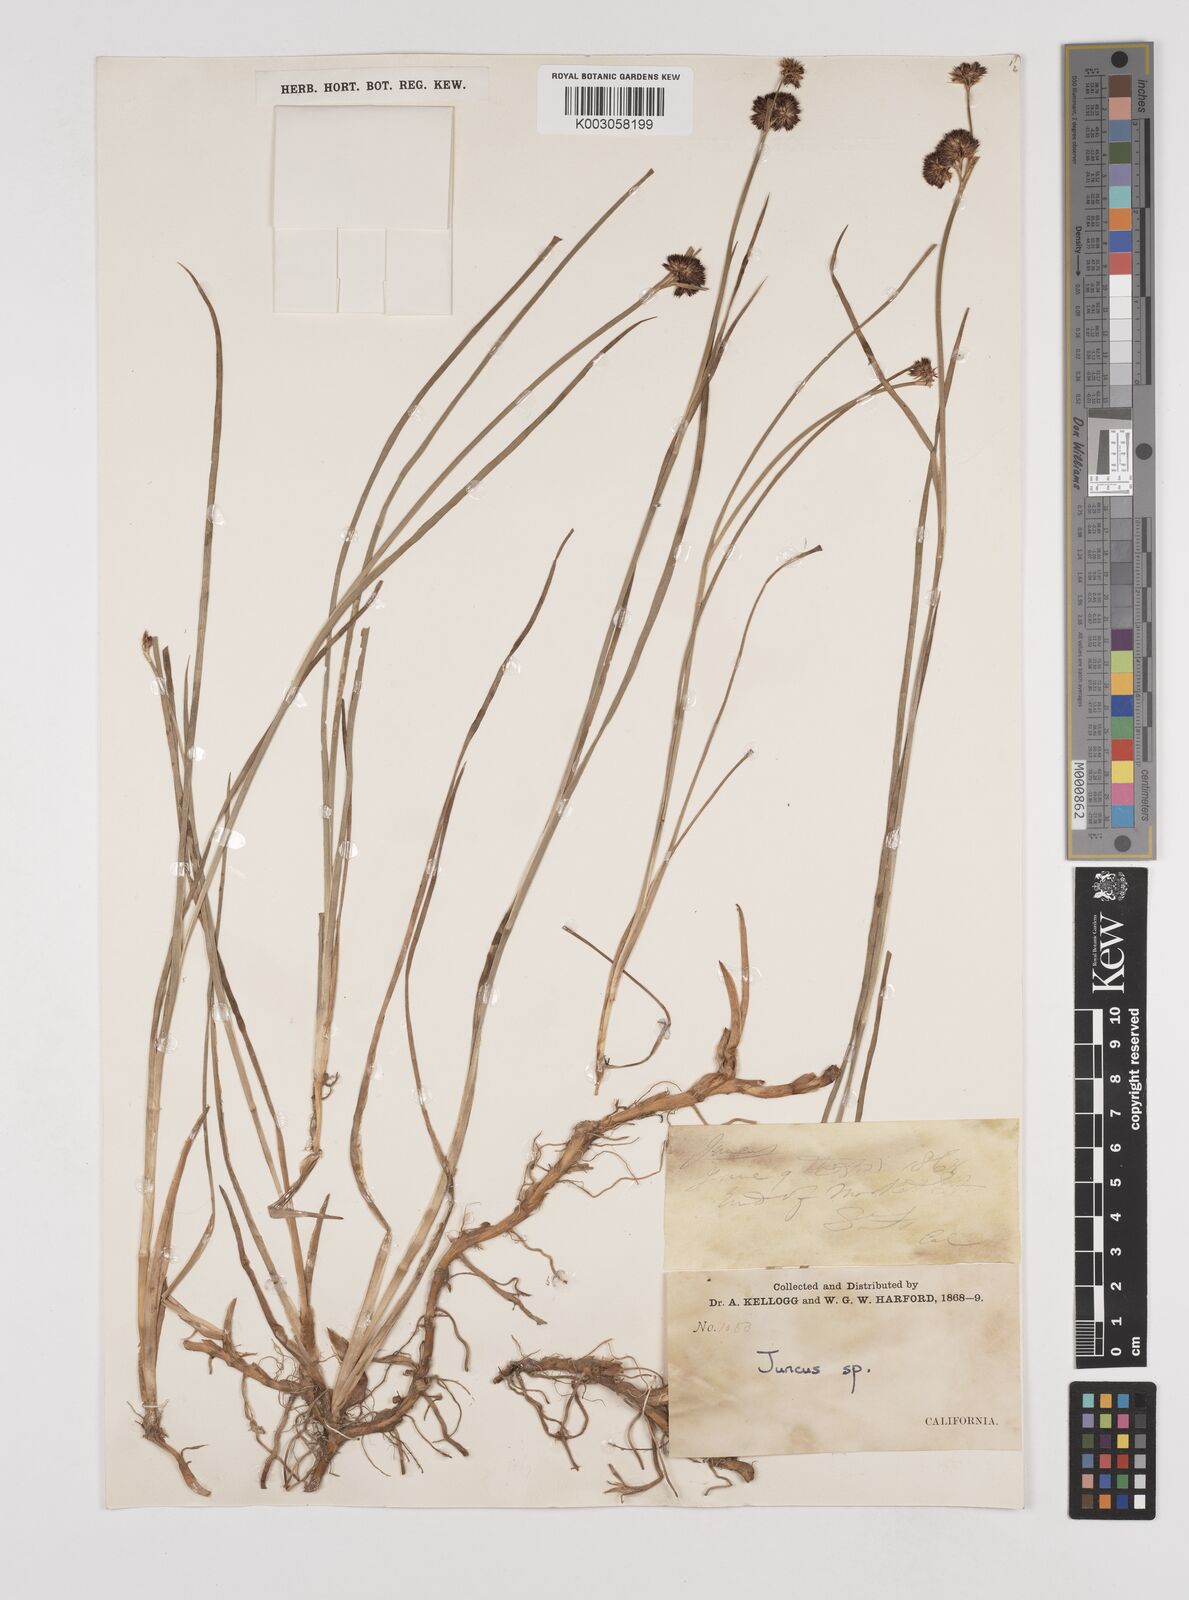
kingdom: Plantae
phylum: Tracheophyta
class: Liliopsida
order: Poales
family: Juncaceae
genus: Juncus
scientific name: Juncus
